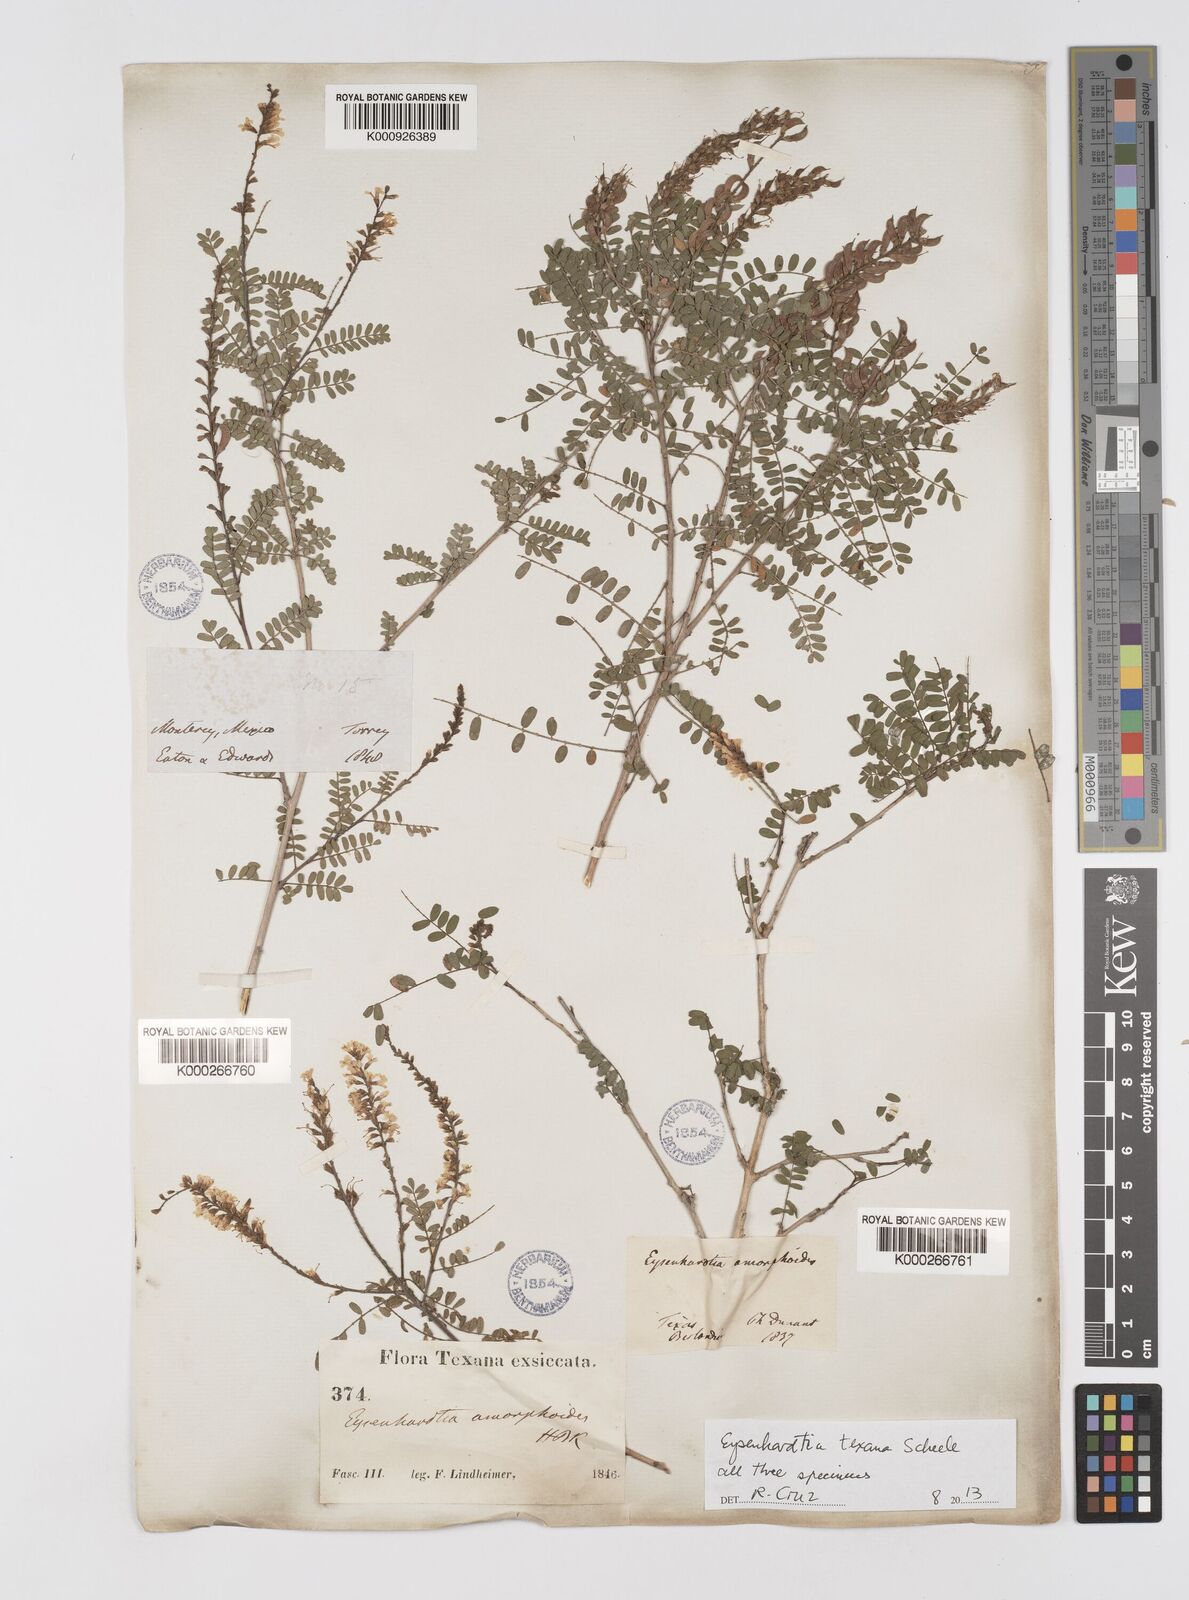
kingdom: Plantae
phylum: Tracheophyta
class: Magnoliopsida
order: Fabales
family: Fabaceae
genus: Eysenhardtia
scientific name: Eysenhardtia texana
